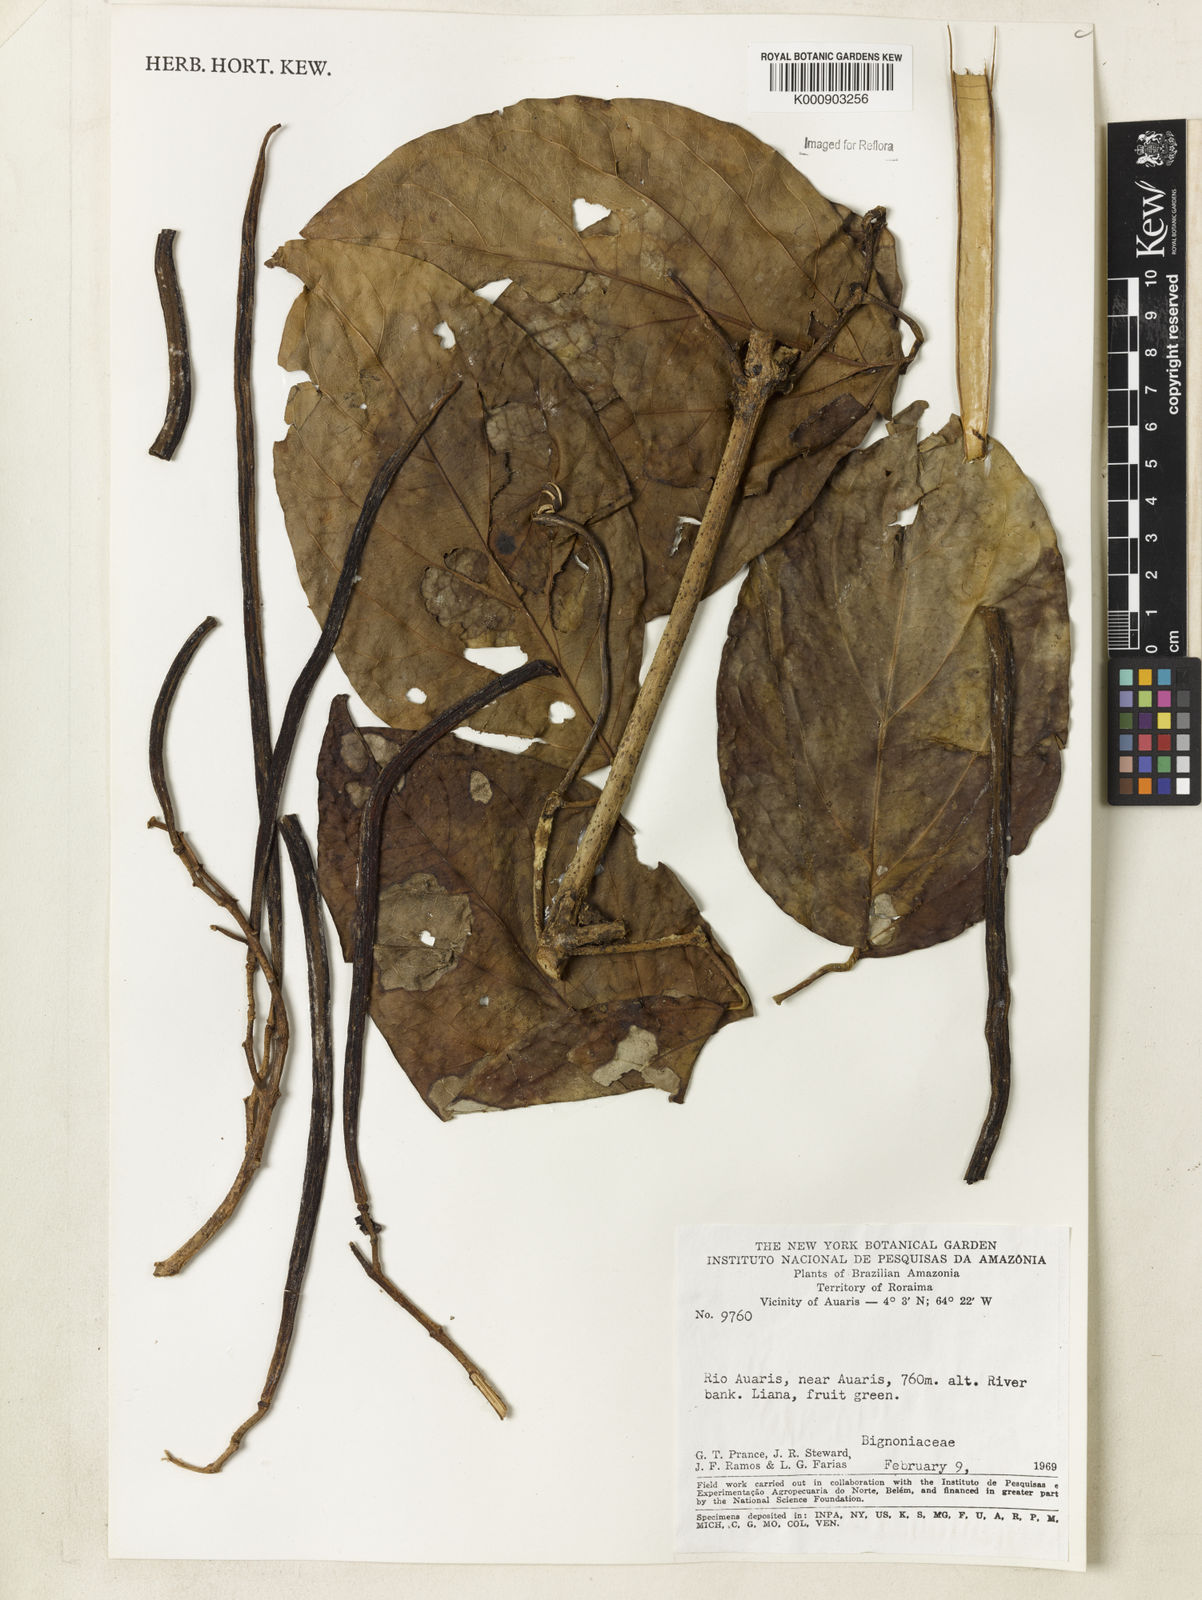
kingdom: Plantae
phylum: Tracheophyta
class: Magnoliopsida
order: Lamiales
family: Bignoniaceae
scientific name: Bignoniaceae
